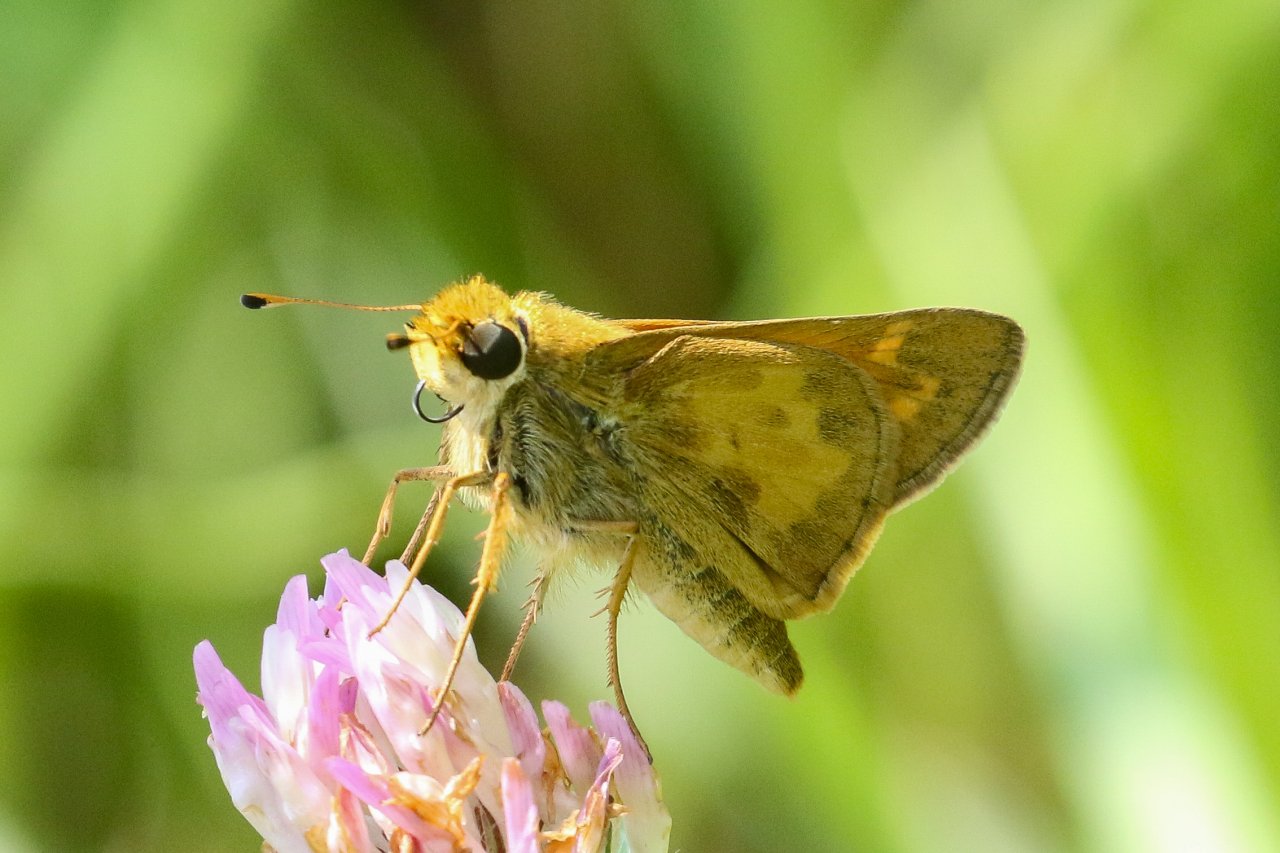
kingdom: Animalia
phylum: Arthropoda
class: Insecta
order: Lepidoptera
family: Hesperiidae
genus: Atalopedes
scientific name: Atalopedes campestris
